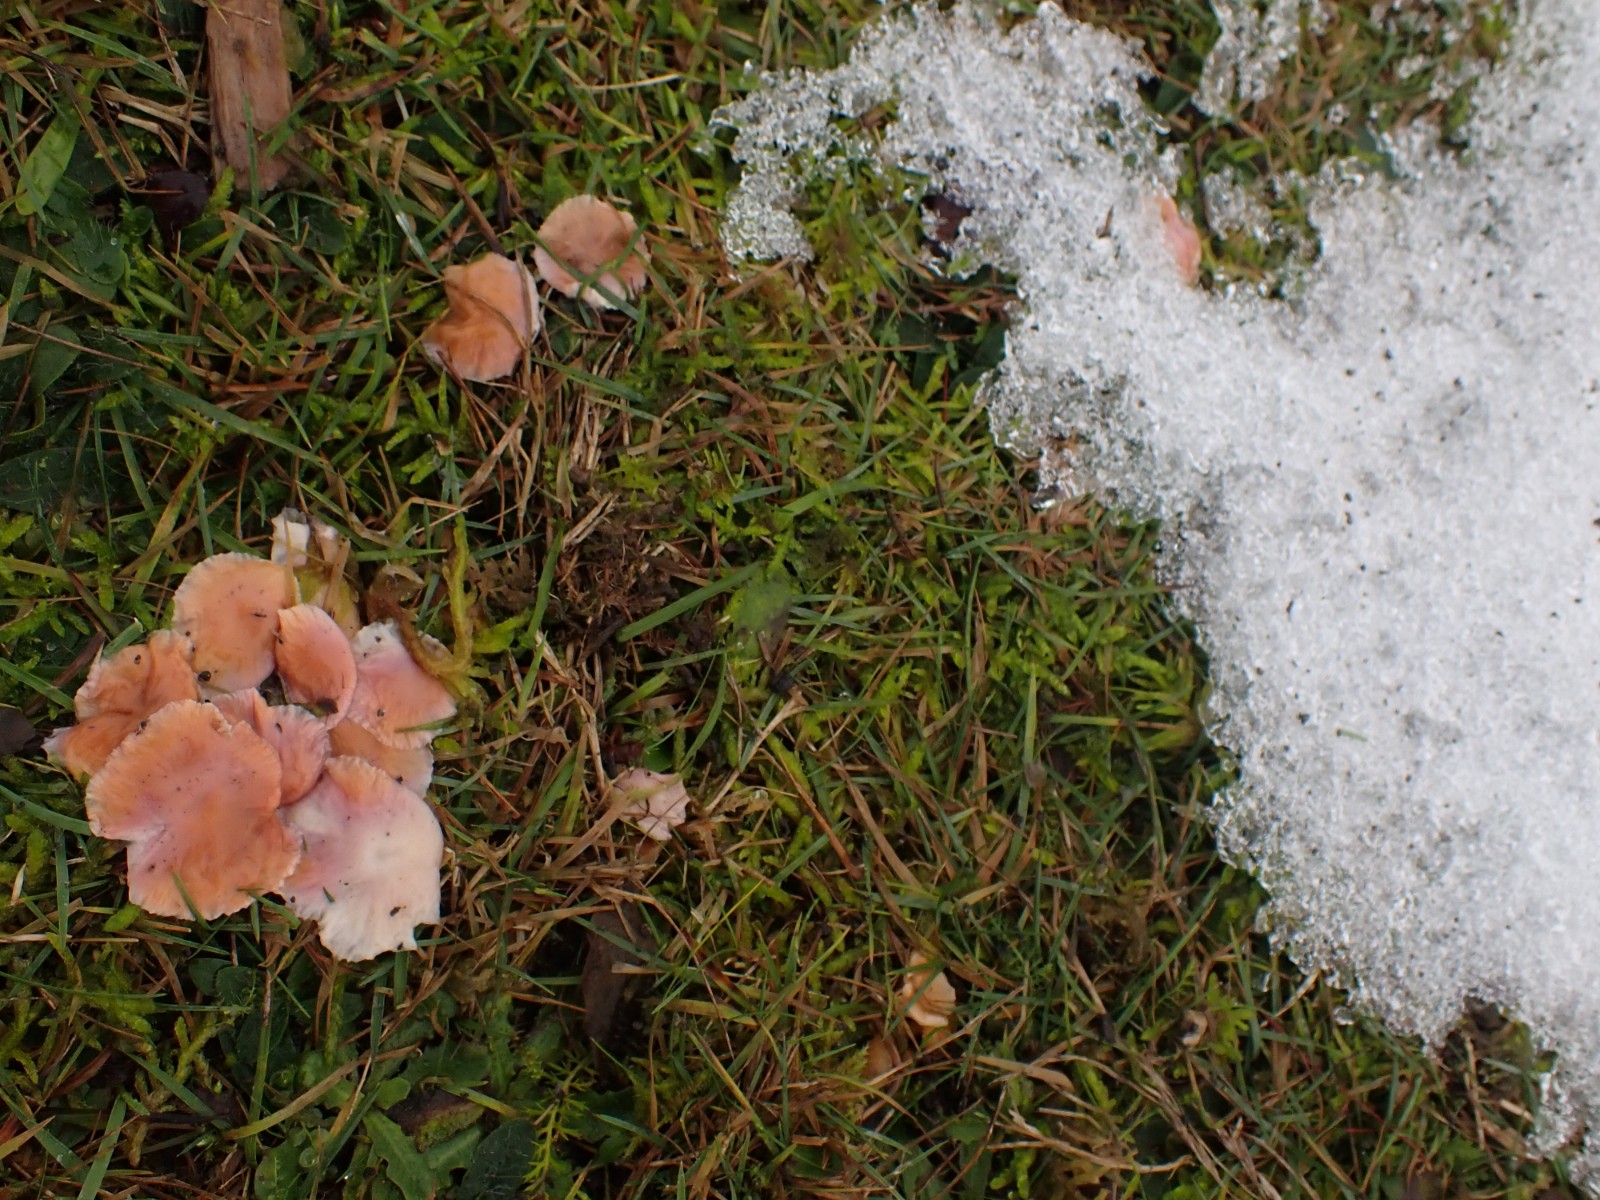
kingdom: Fungi
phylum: Basidiomycota
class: Agaricomycetes
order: Agaricales
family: Hygrophoraceae
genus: Gliophorus
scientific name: Gliophorus laetus
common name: brusk-vokshat
